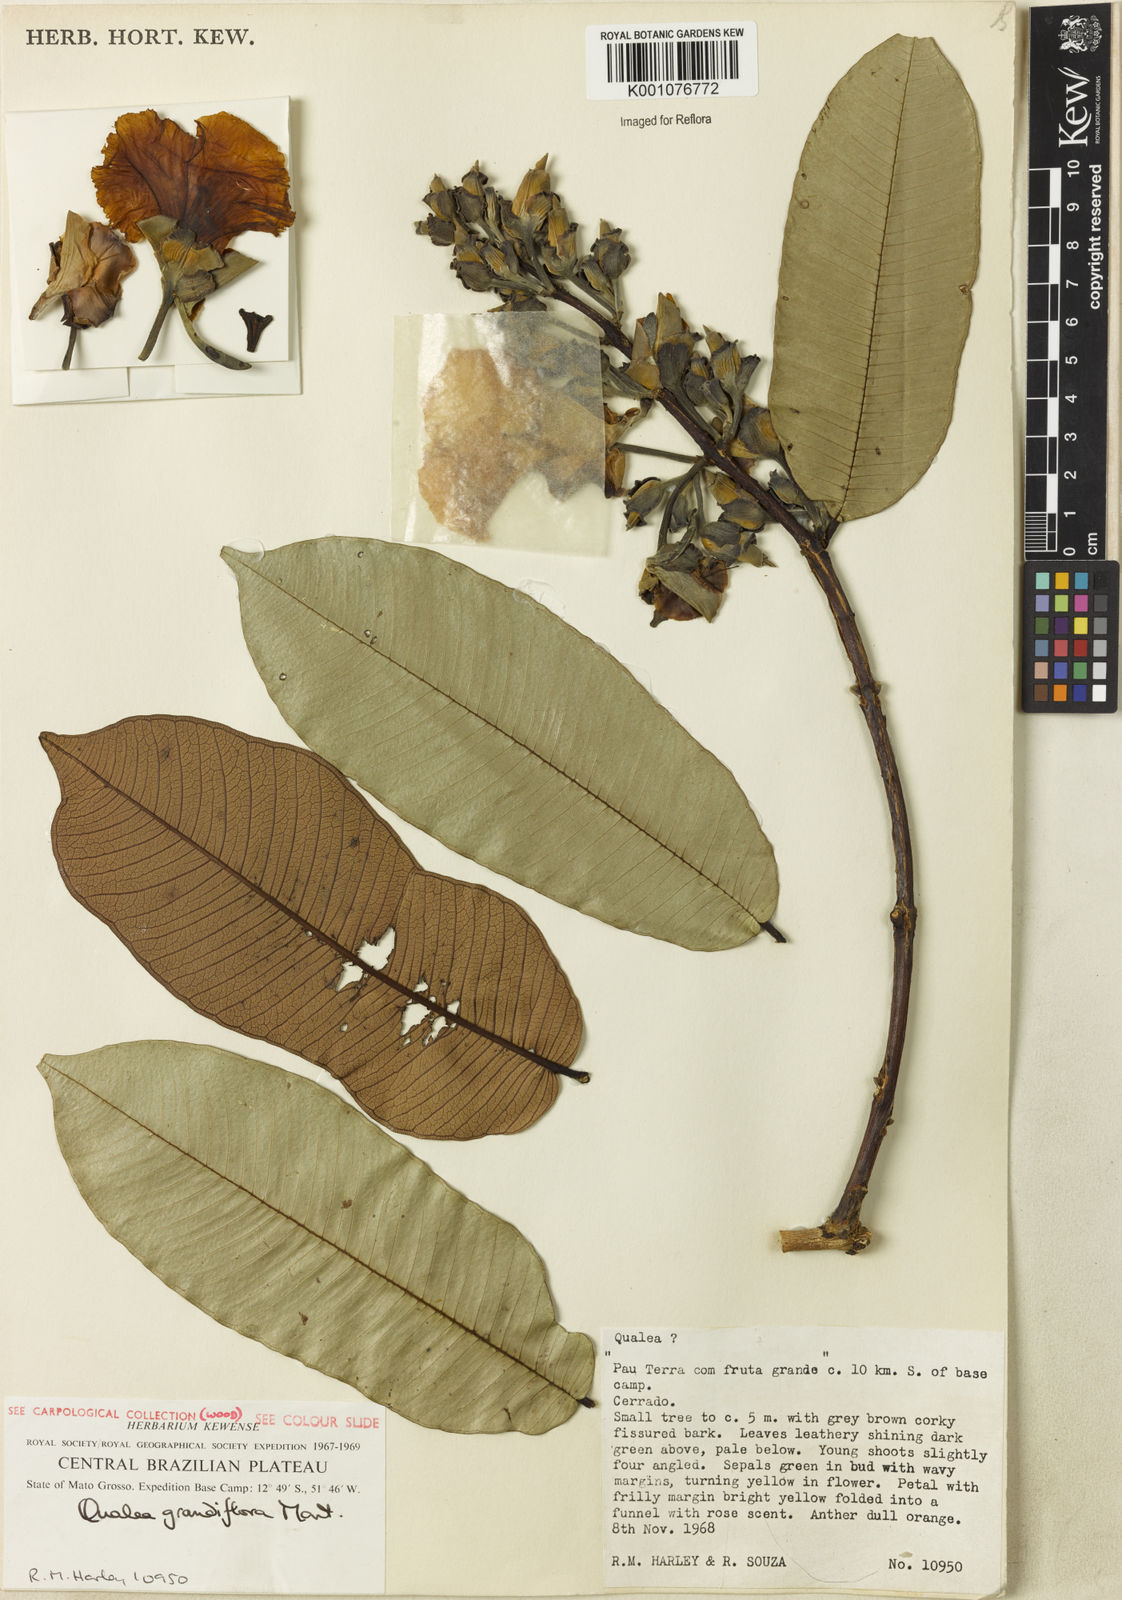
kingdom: Plantae
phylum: Tracheophyta
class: Magnoliopsida
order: Myrtales
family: Vochysiaceae
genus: Qualea
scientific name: Qualea grandiflora
